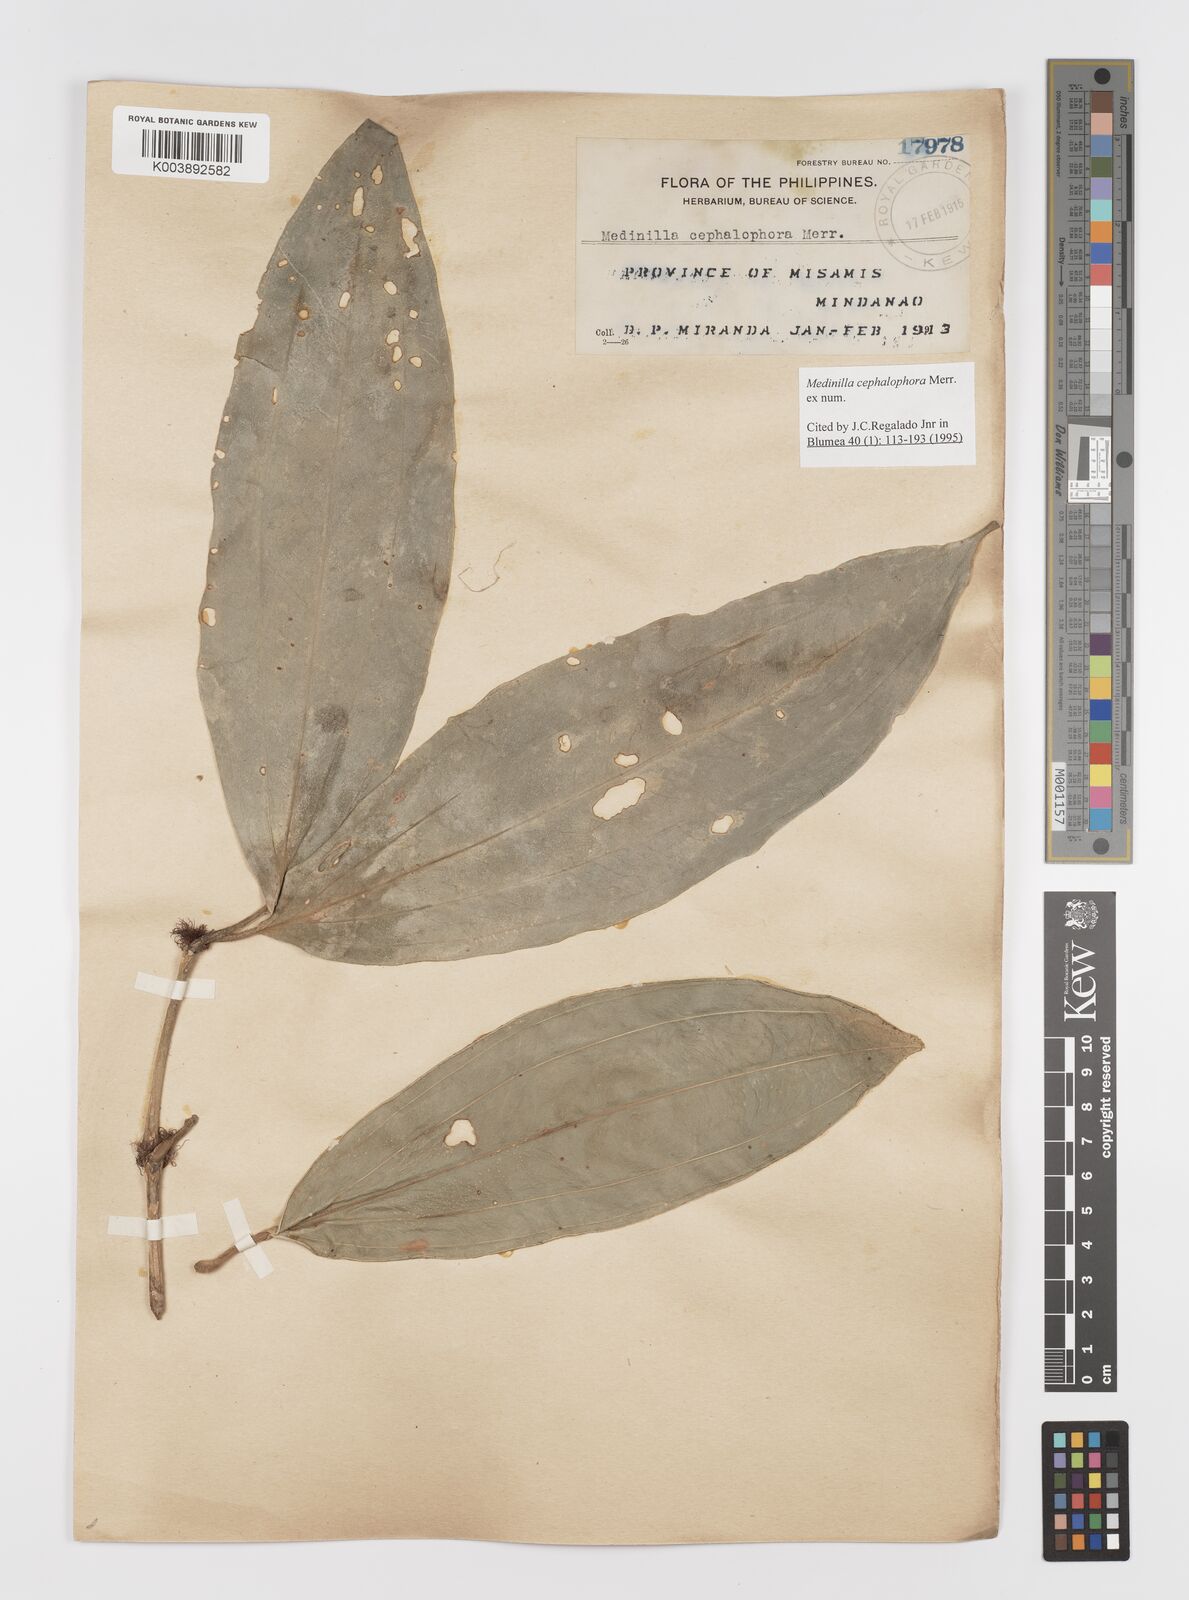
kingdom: Plantae
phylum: Tracheophyta
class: Magnoliopsida
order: Myrtales
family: Melastomataceae
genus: Medinilla
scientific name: Medinilla cephalophora
